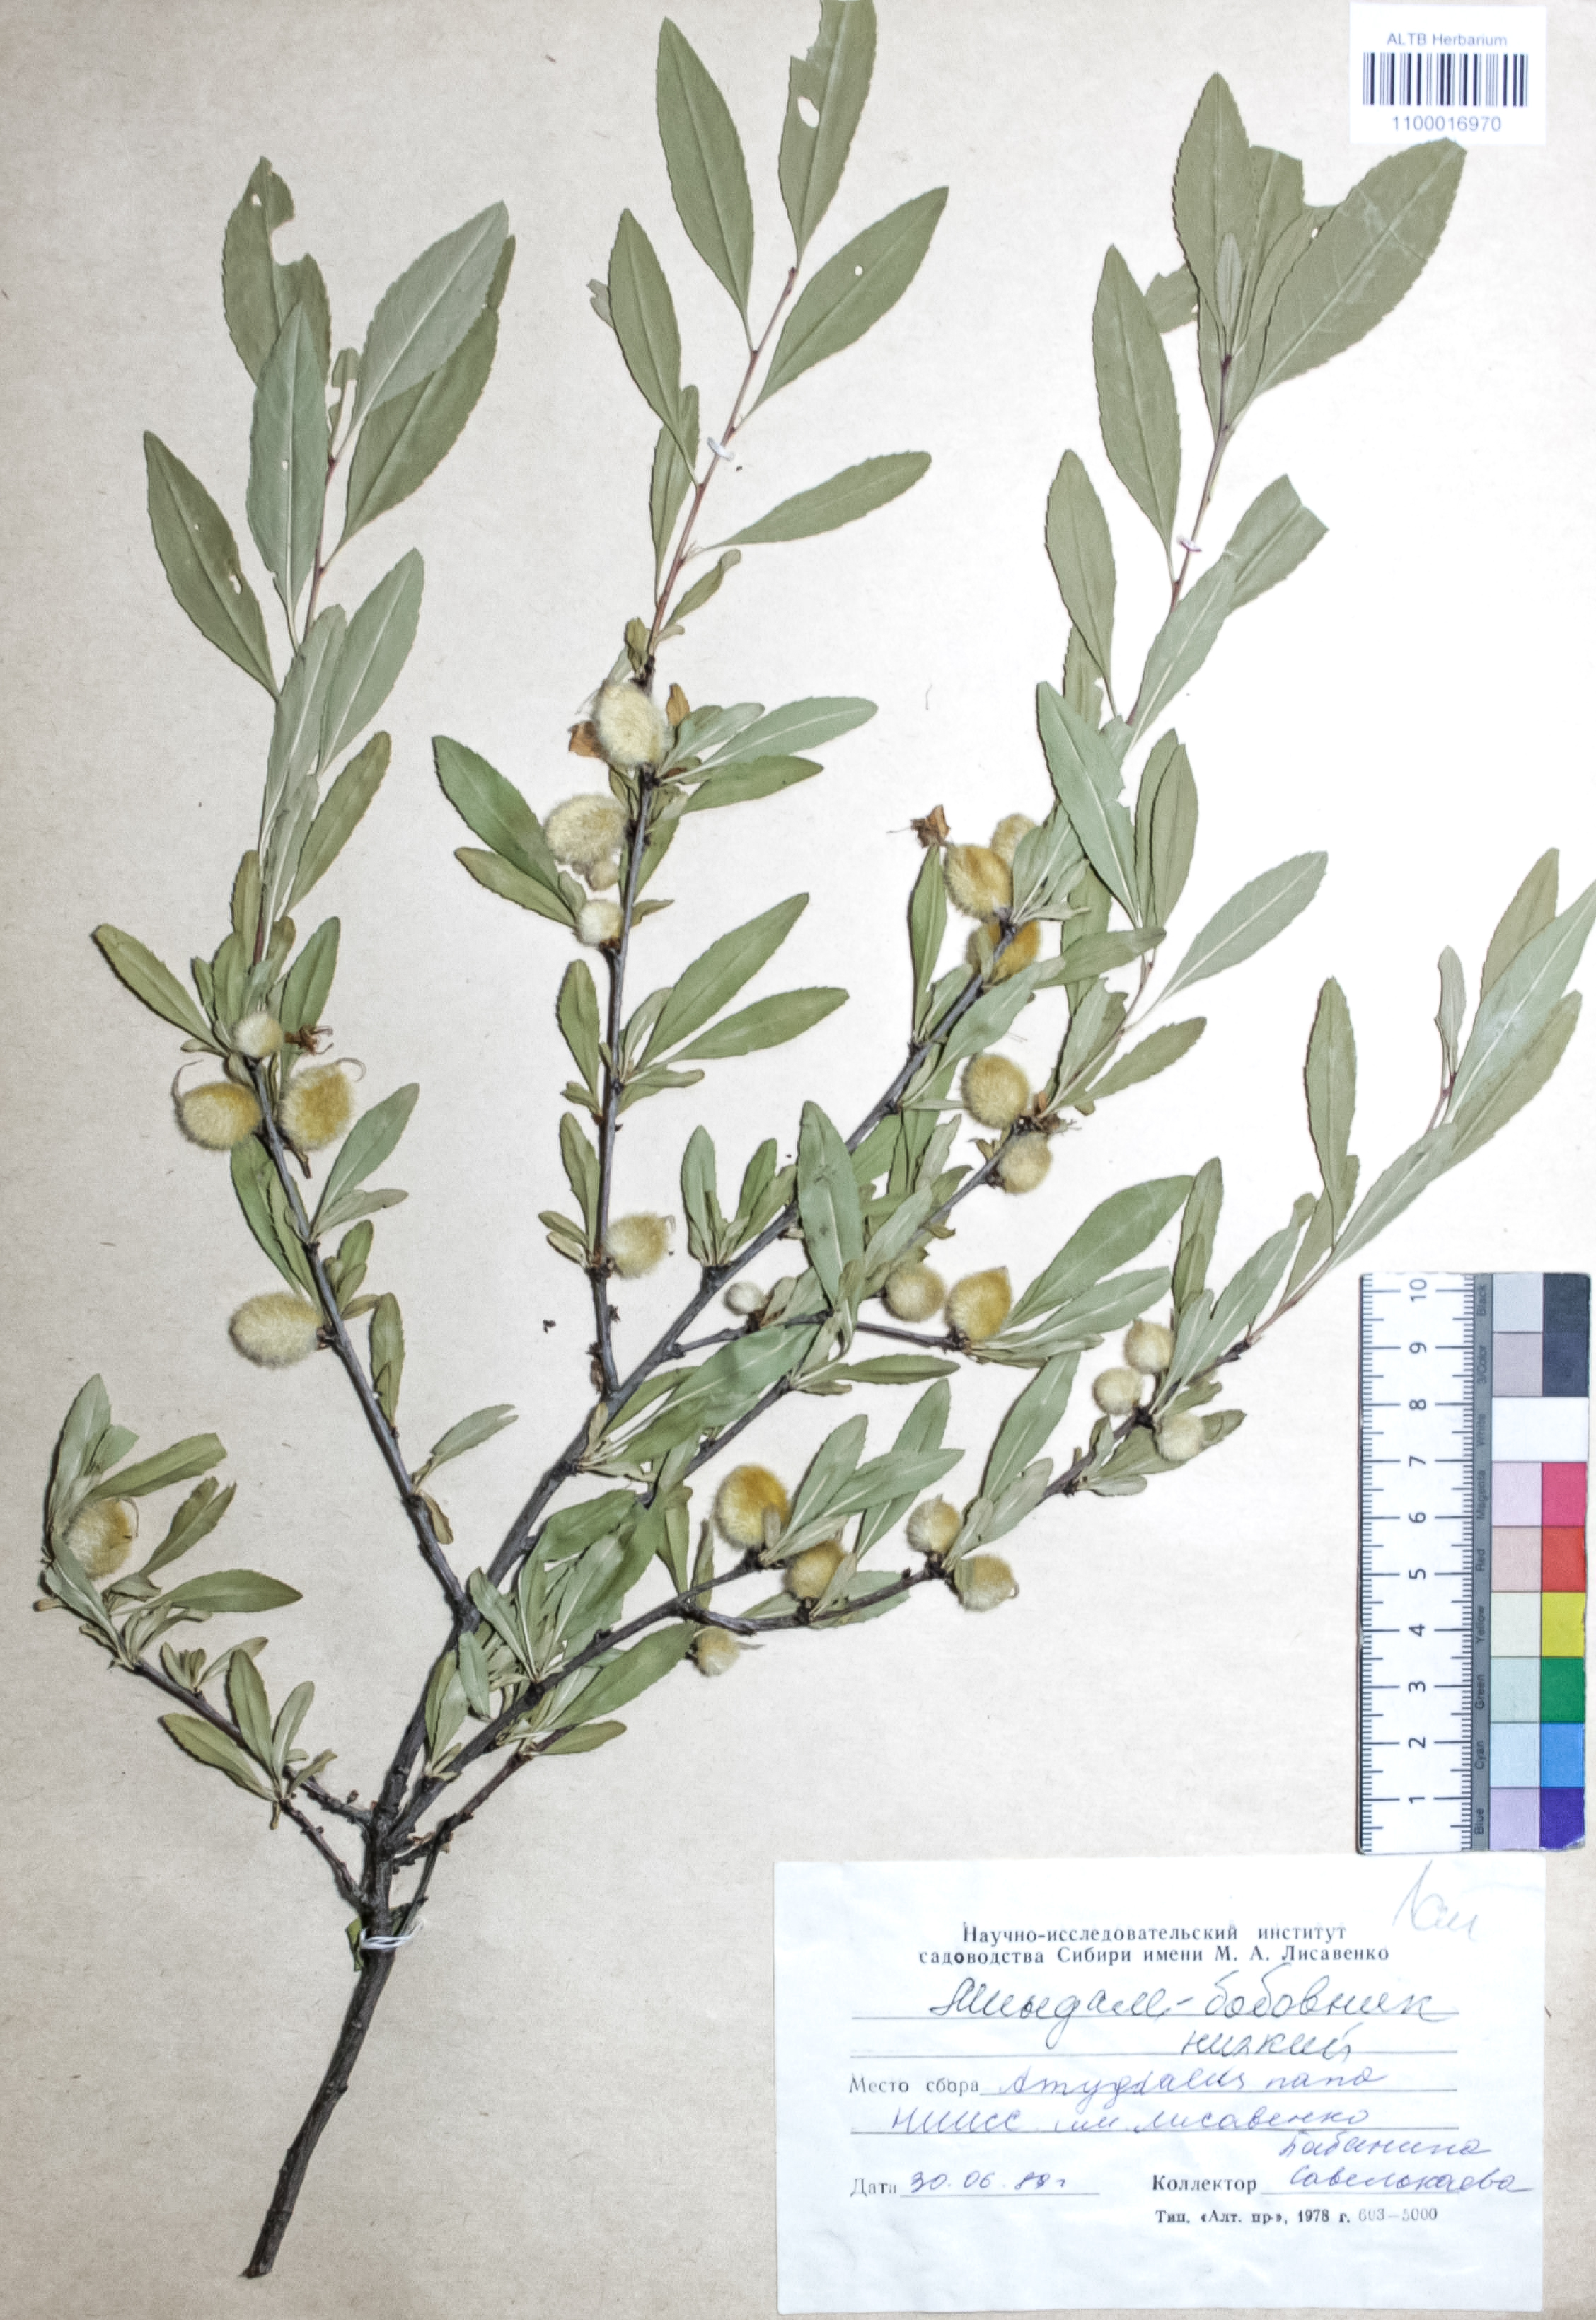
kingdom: Plantae
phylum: Tracheophyta
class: Magnoliopsida
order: Rosales
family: Rosaceae
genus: Prunus
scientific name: Prunus tenella
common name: Dwarf russian almond
